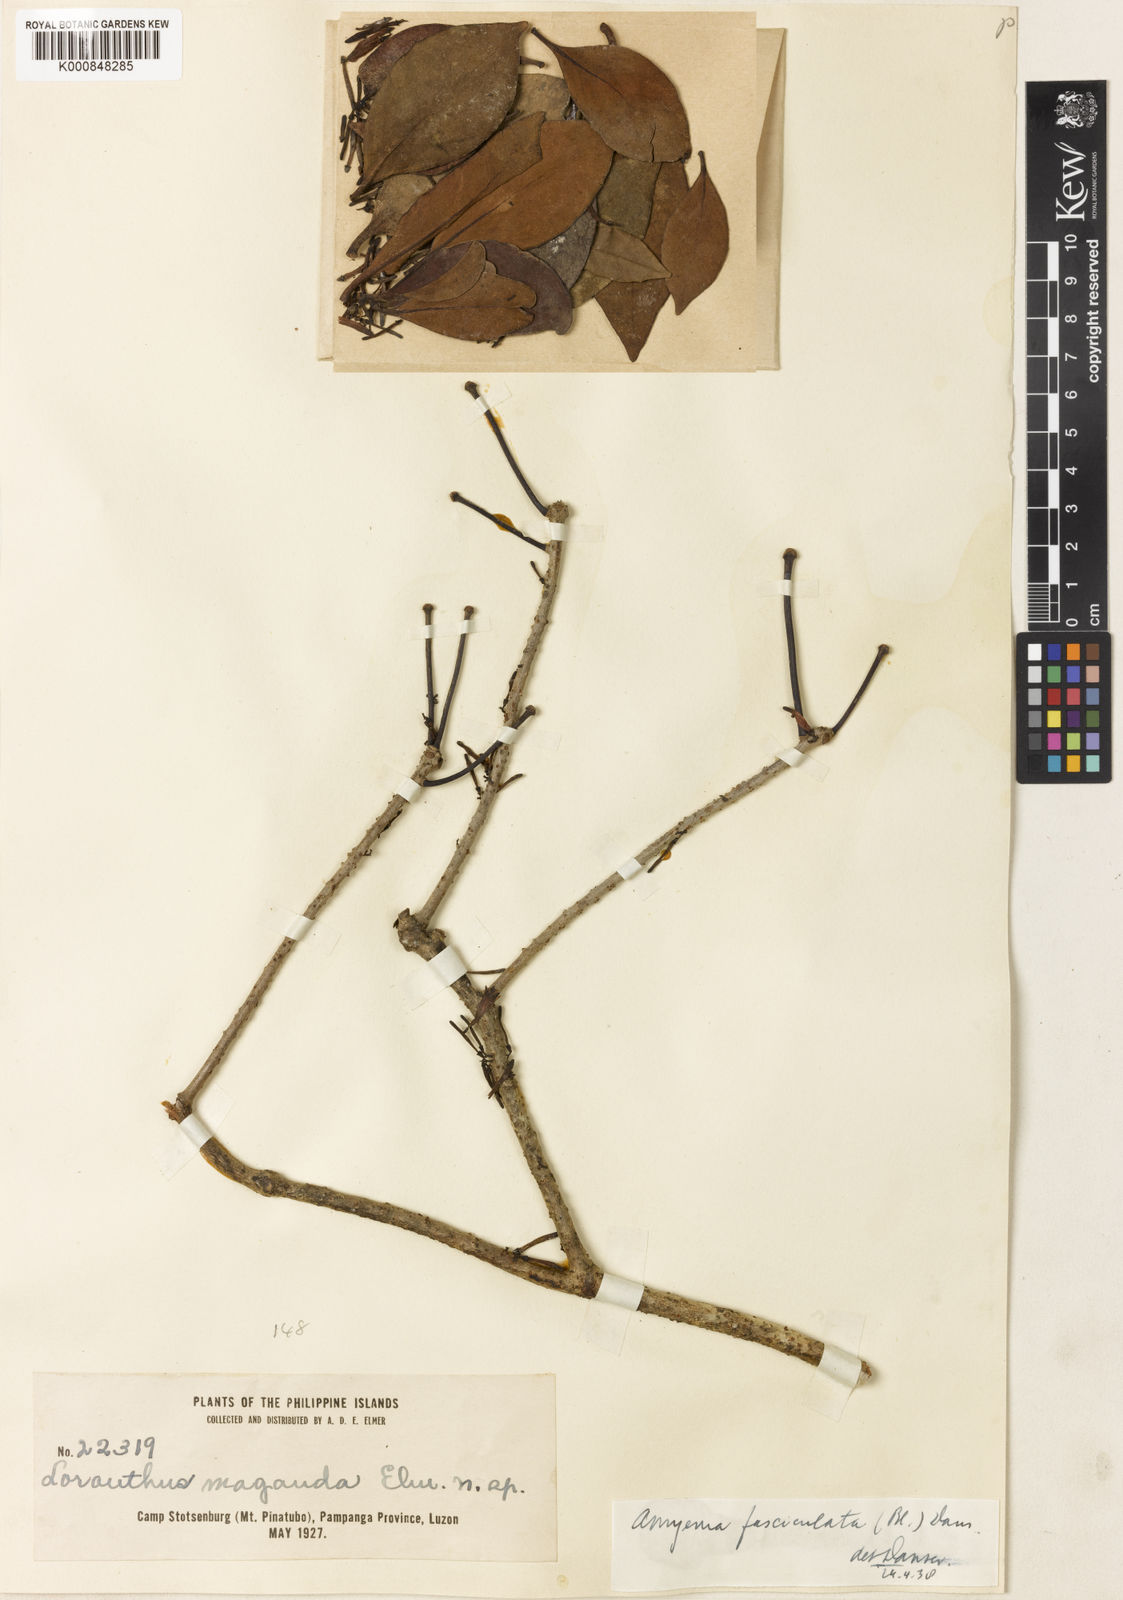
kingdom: Plantae
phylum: Tracheophyta
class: Magnoliopsida
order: Santalales
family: Loranthaceae
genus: Amyema
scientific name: Amyema fasciculata
